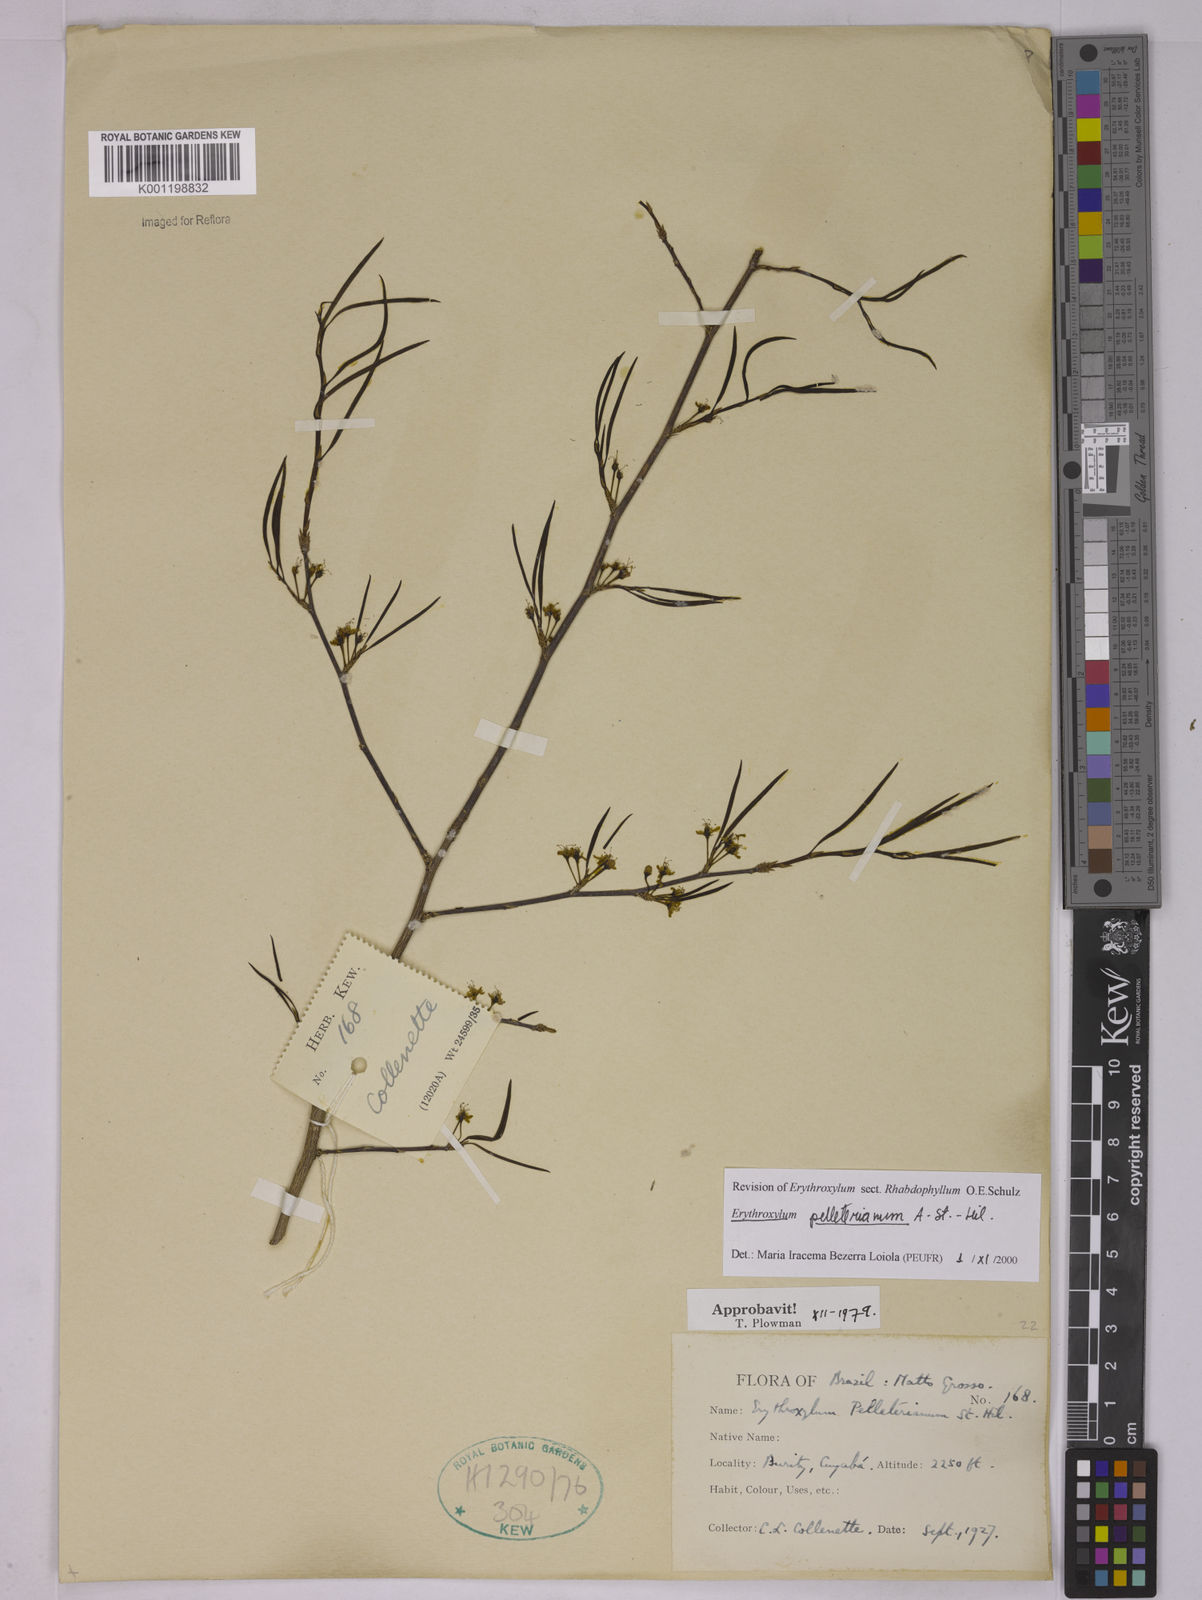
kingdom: Plantae
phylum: Tracheophyta
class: Magnoliopsida
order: Malpighiales
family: Erythroxylaceae
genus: Erythroxylum
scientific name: Erythroxylum pelleterianum
